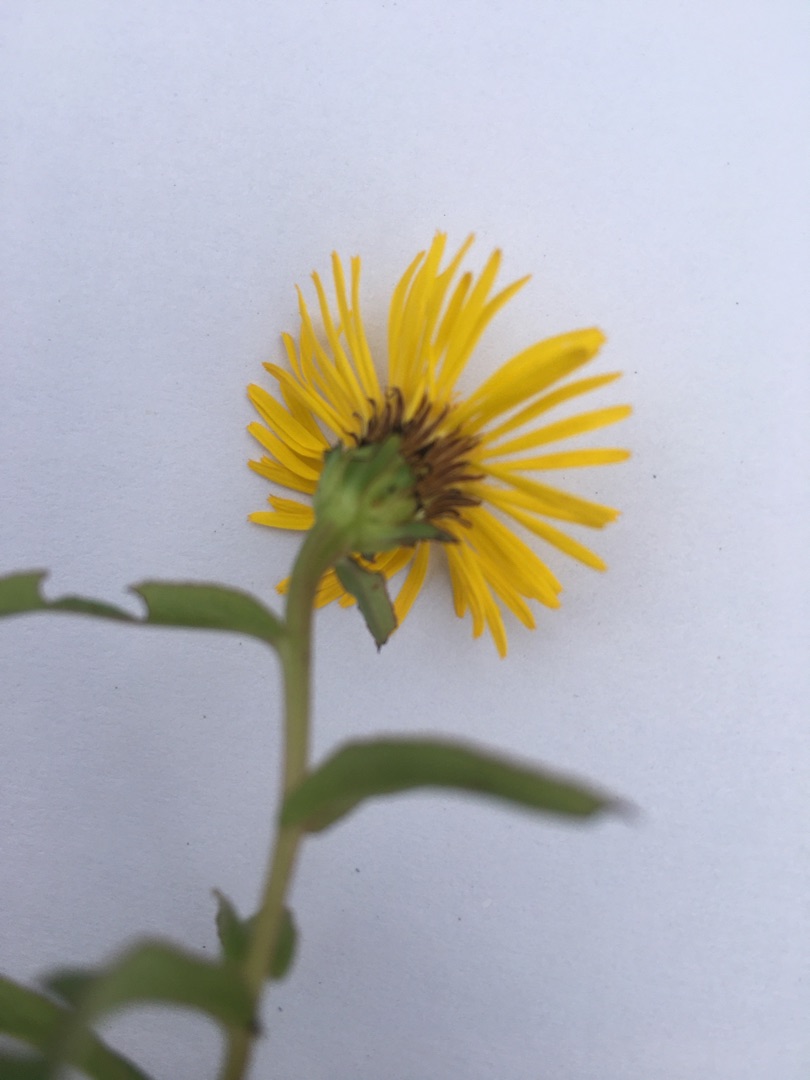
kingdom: Plantae
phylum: Tracheophyta
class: Magnoliopsida
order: Asterales
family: Asteraceae
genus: Pentanema
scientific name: Pentanema salicinum
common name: Pile-alant
